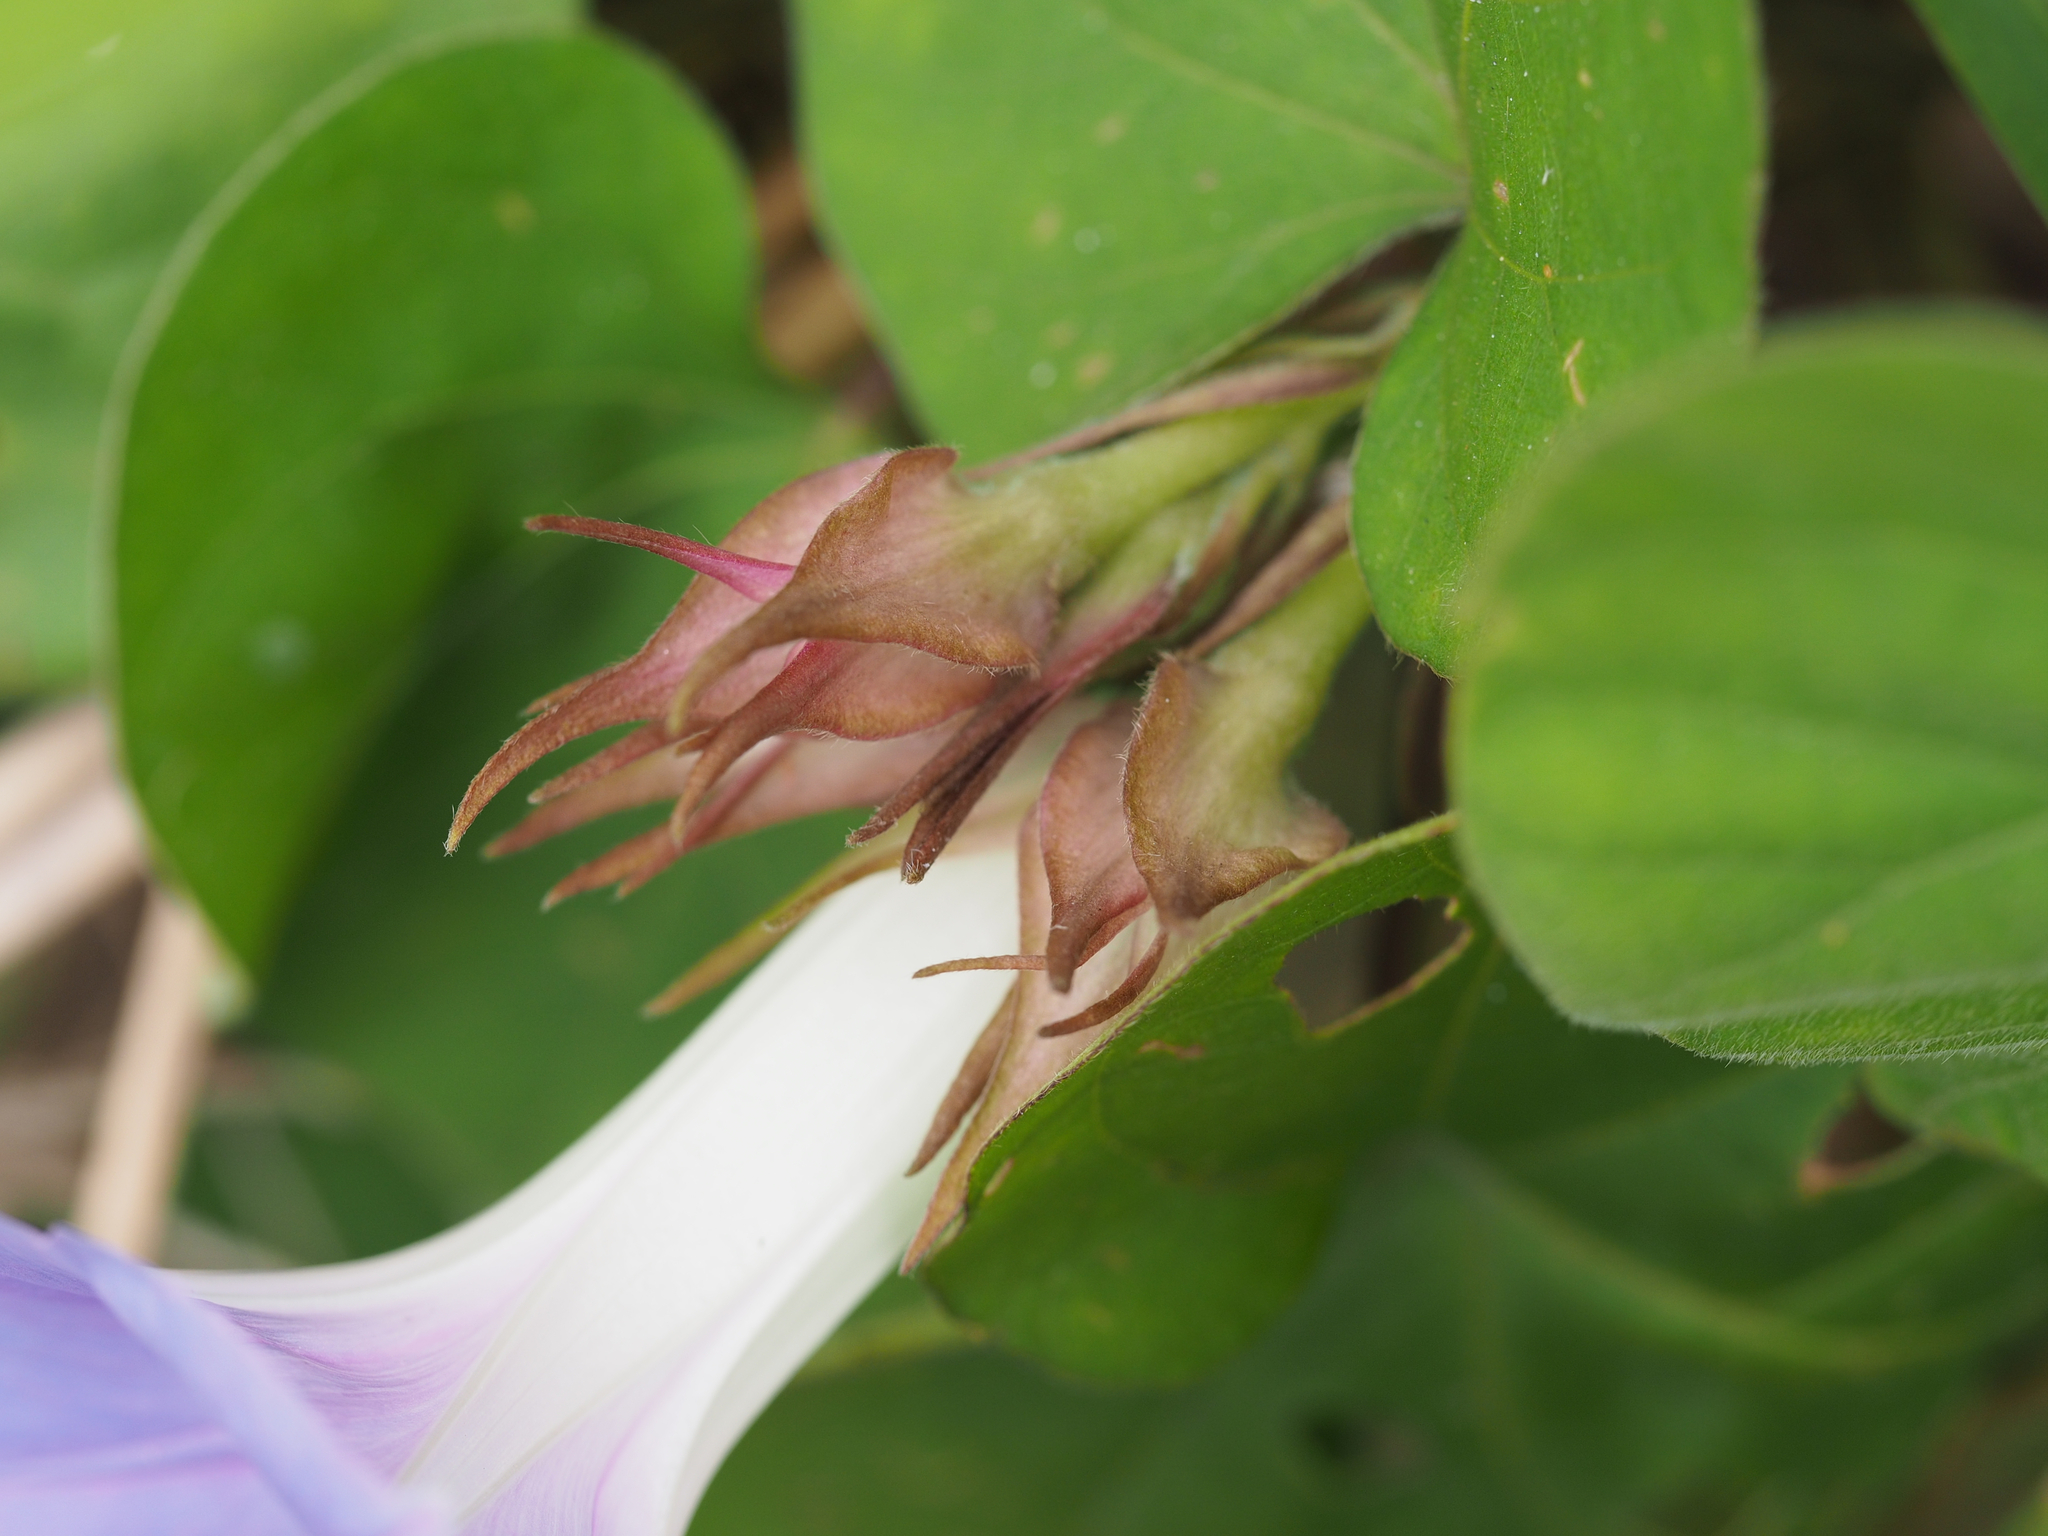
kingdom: Plantae
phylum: Tracheophyta
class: Magnoliopsida
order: Solanales
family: Convolvulaceae
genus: Ipomoea
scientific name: Ipomoea indica
